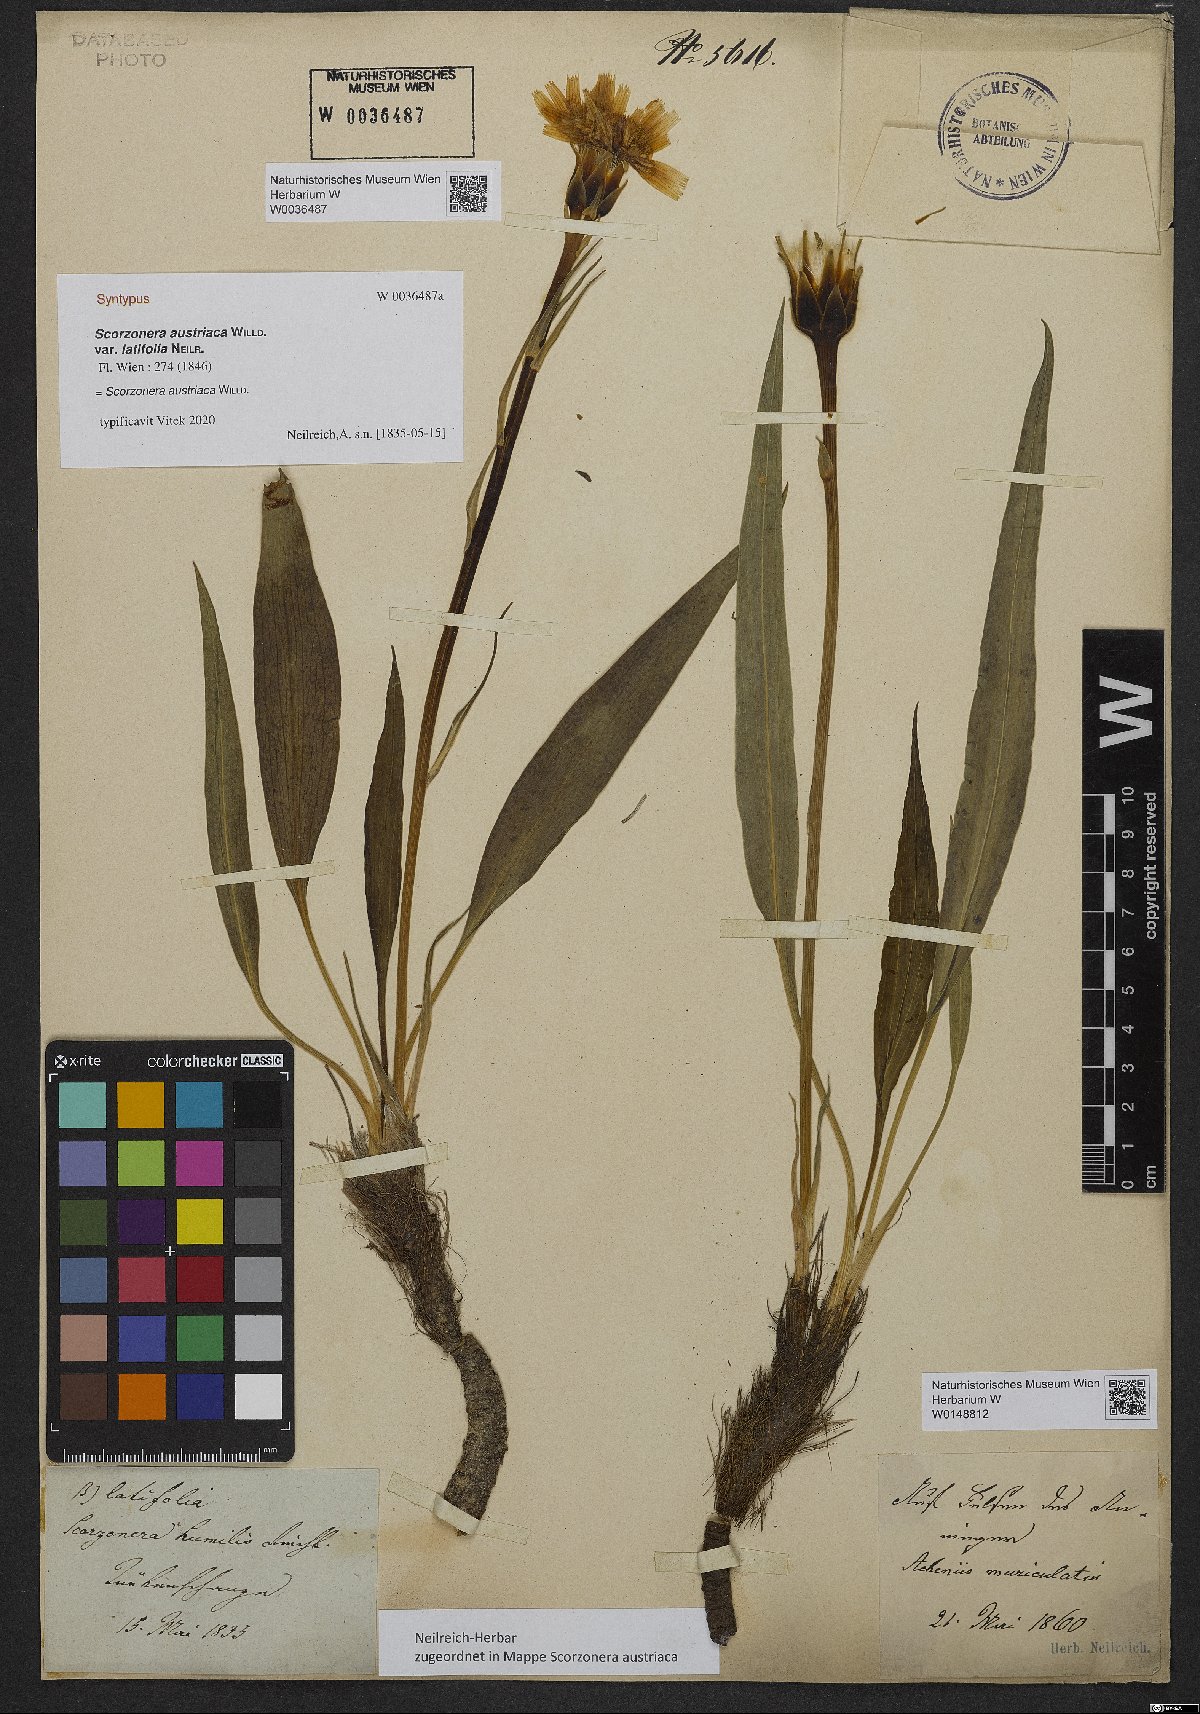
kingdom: Plantae
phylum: Tracheophyta
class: Magnoliopsida
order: Asterales
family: Asteraceae
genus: Takhtajaniantha
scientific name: Takhtajaniantha austriaca
